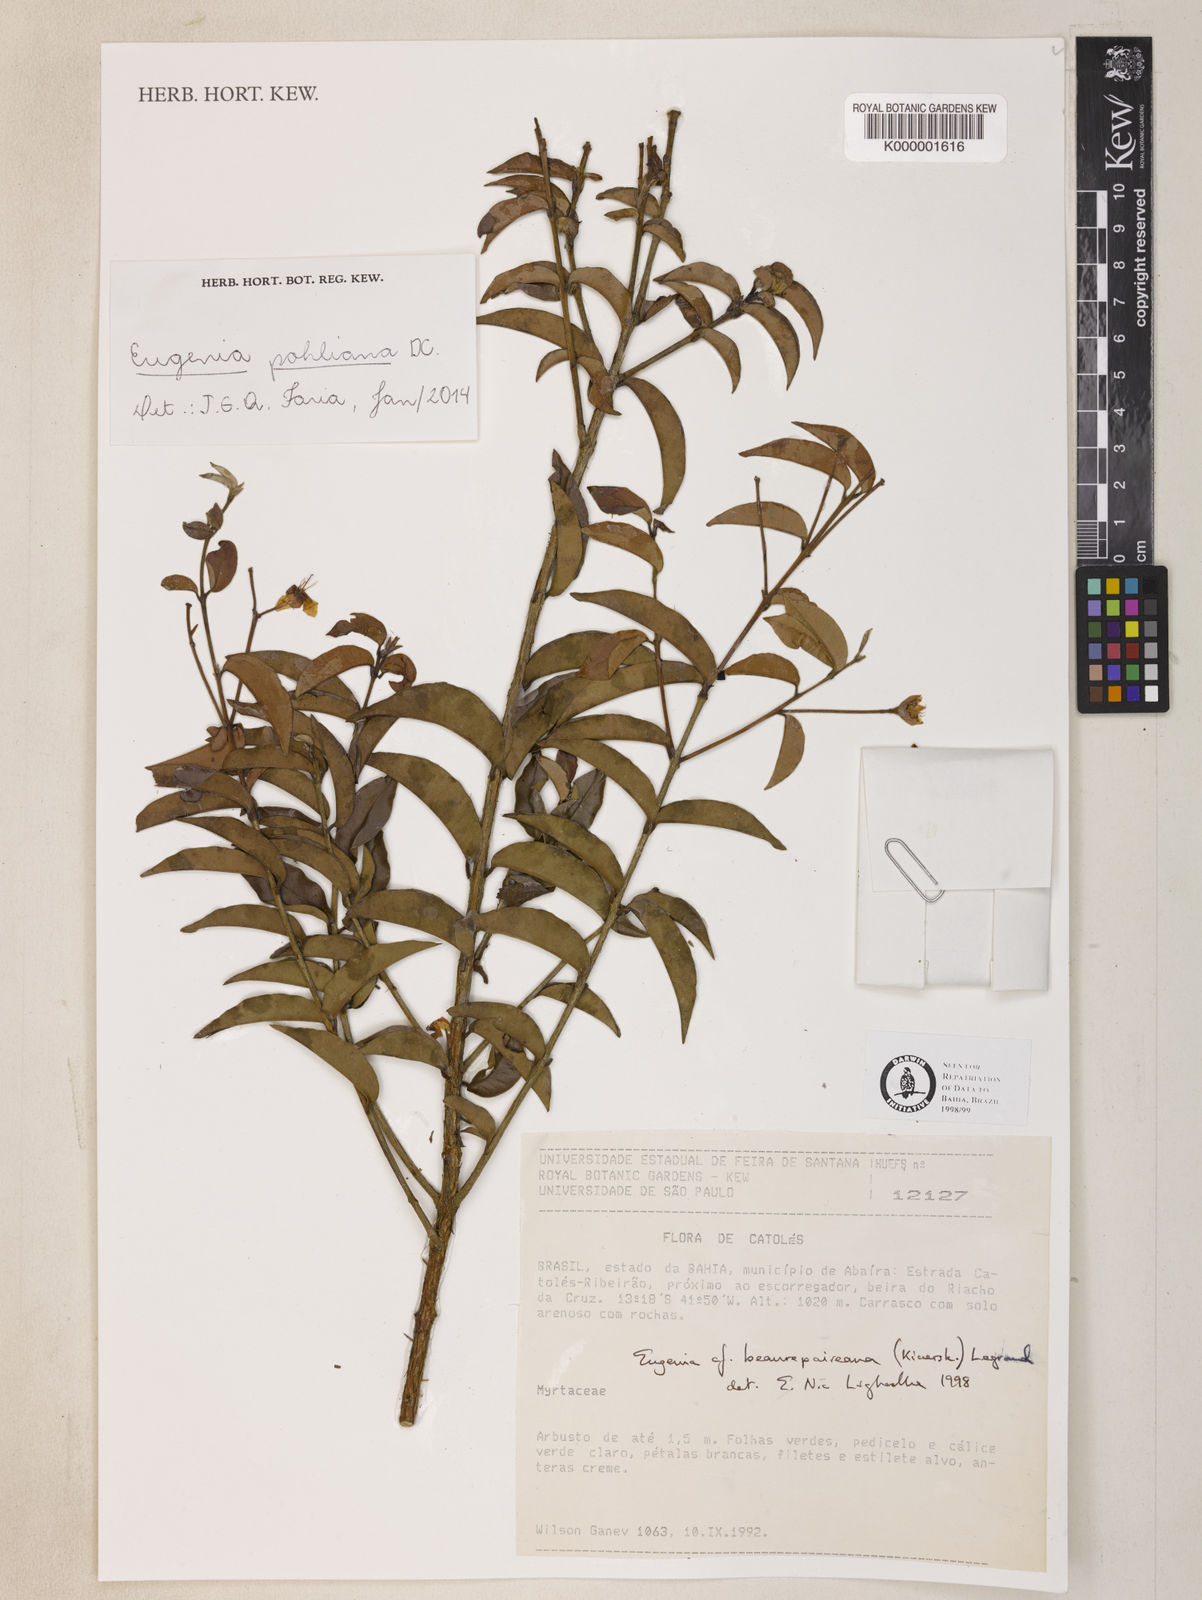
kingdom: Plantae
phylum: Tracheophyta
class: Magnoliopsida
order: Myrtales
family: Myrtaceae
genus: Eugenia
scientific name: Eugenia pohliana
